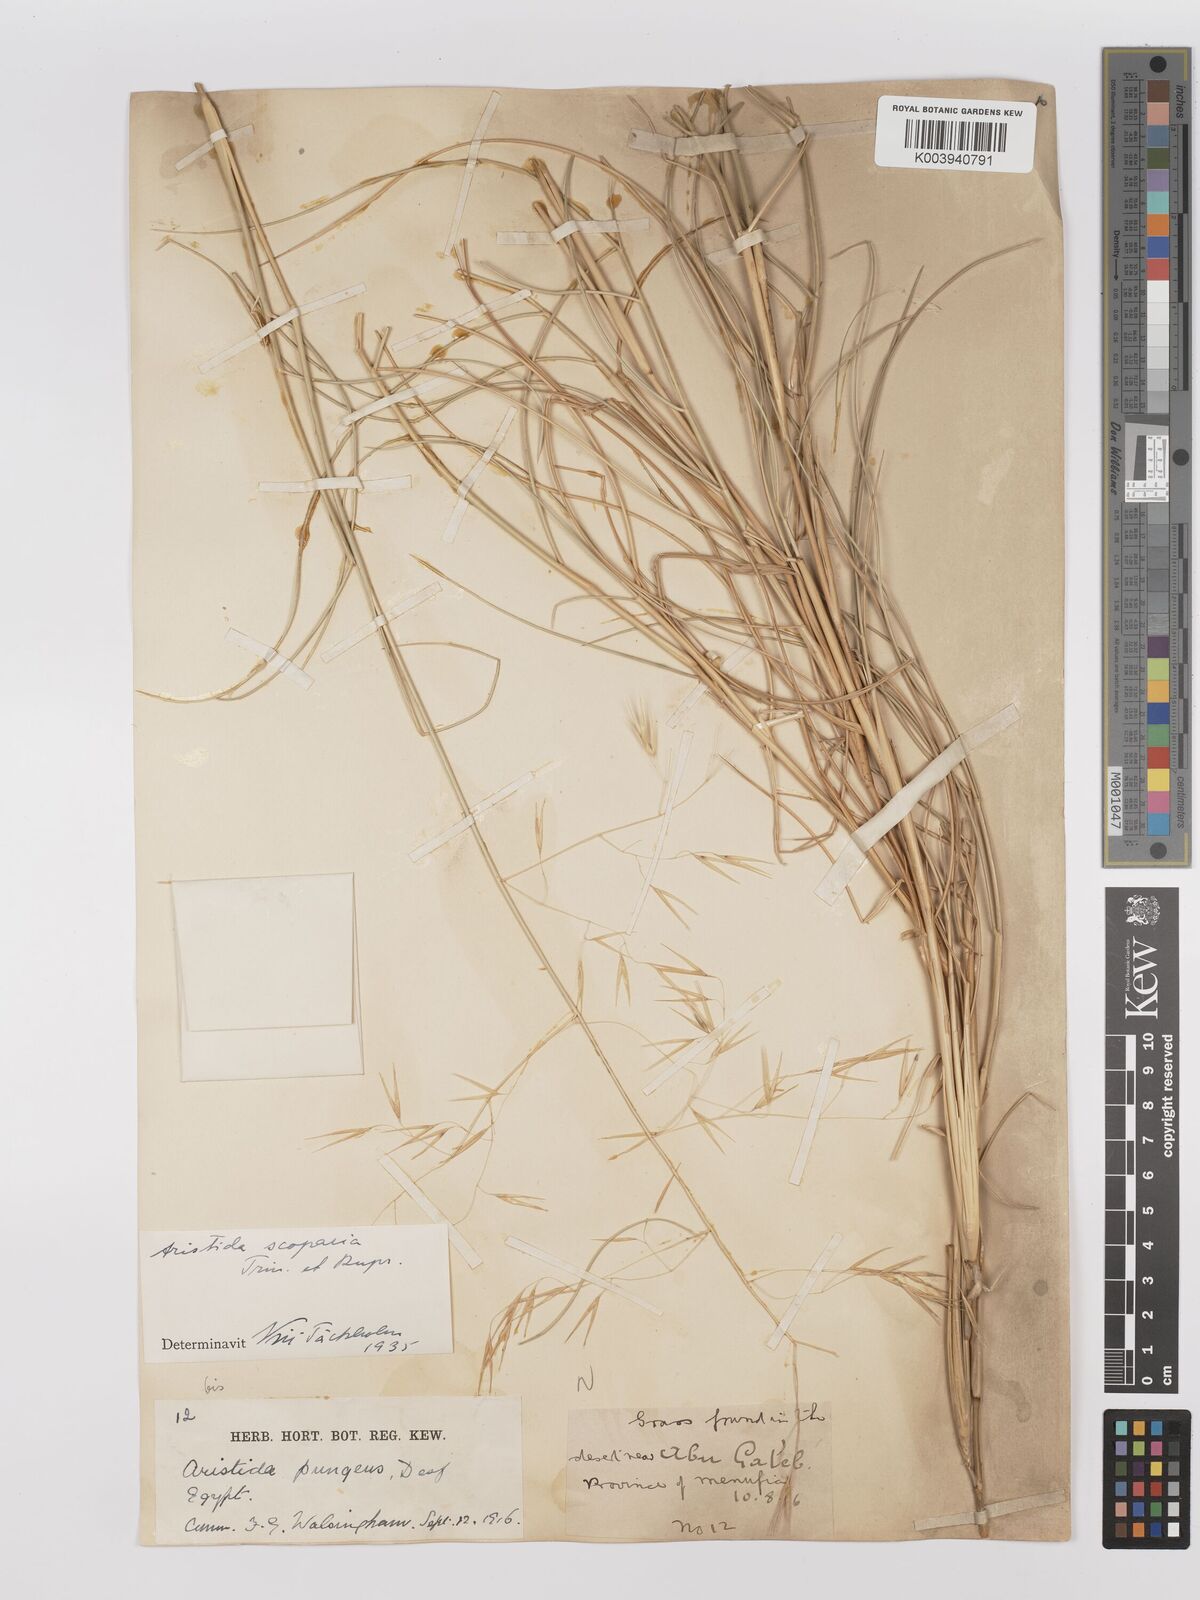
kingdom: Plantae
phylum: Tracheophyta
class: Liliopsida
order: Poales
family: Poaceae
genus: Stipagrostis
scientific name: Stipagrostis scoparia
